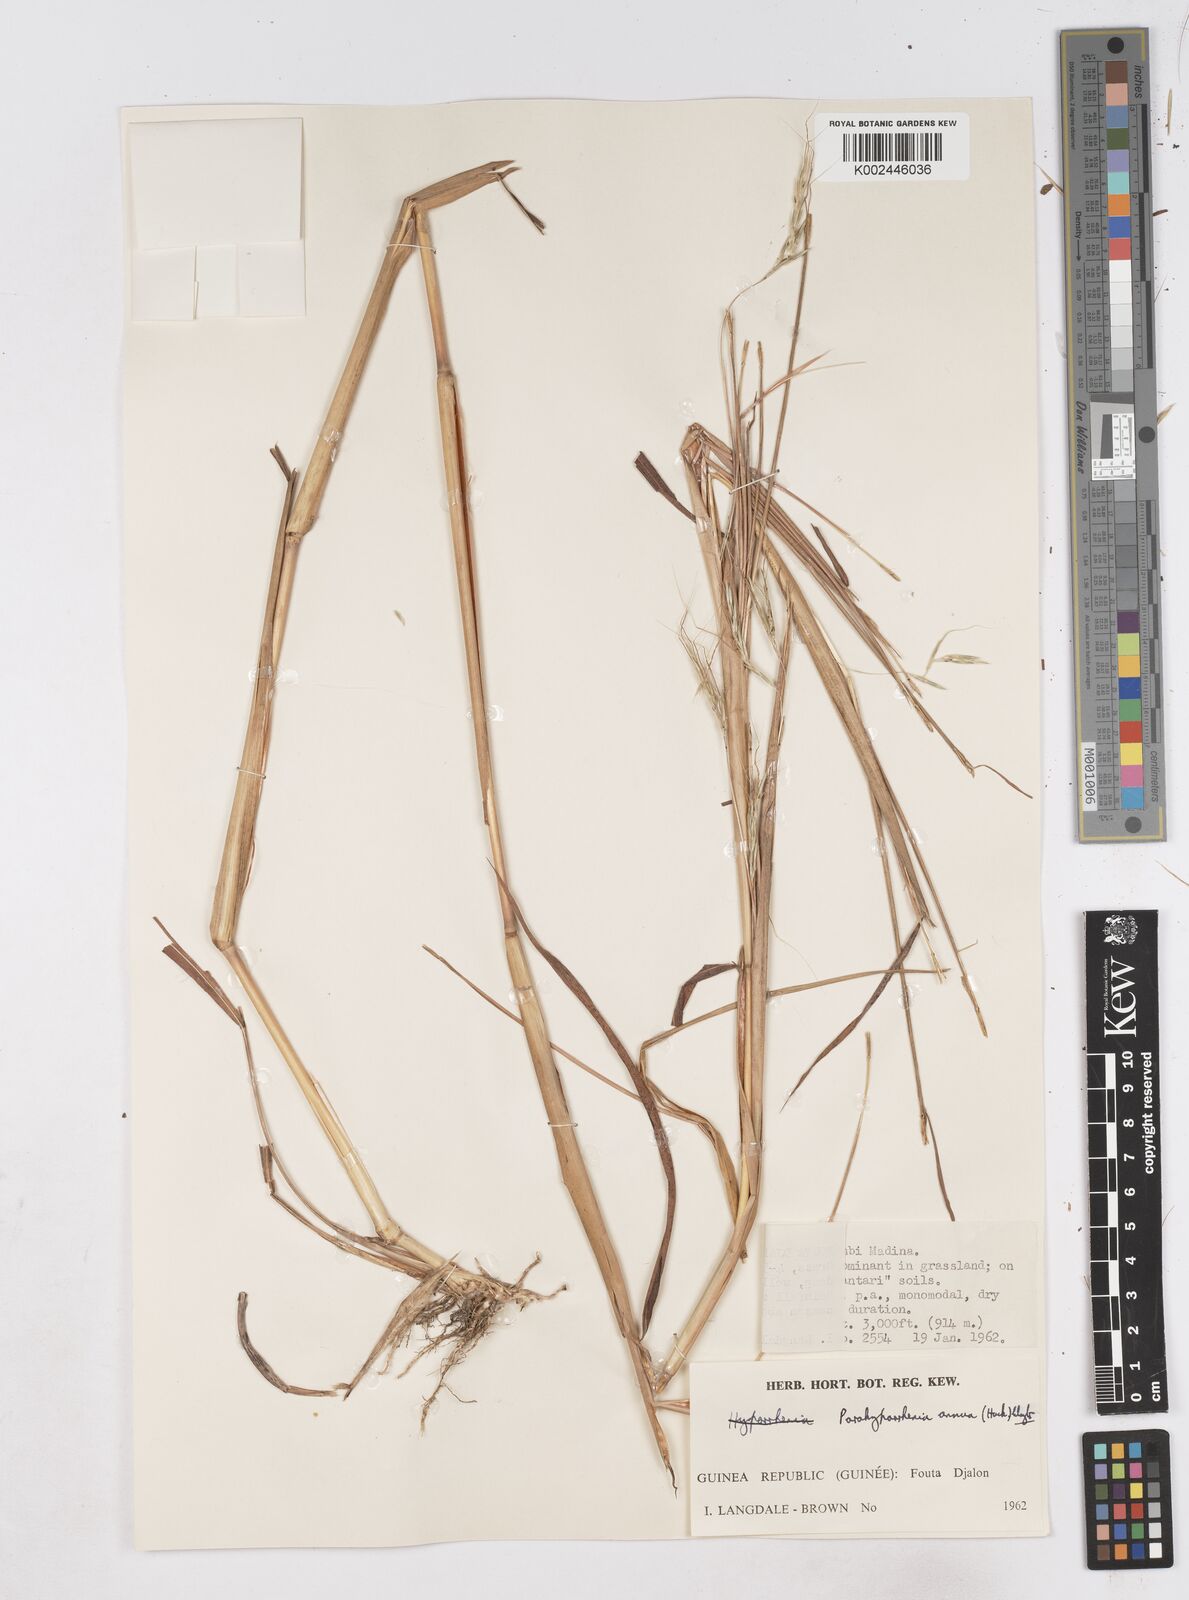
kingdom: Plantae
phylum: Tracheophyta
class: Liliopsida
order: Poales
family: Poaceae
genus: Parahyparrhenia
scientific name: Parahyparrhenia annua
